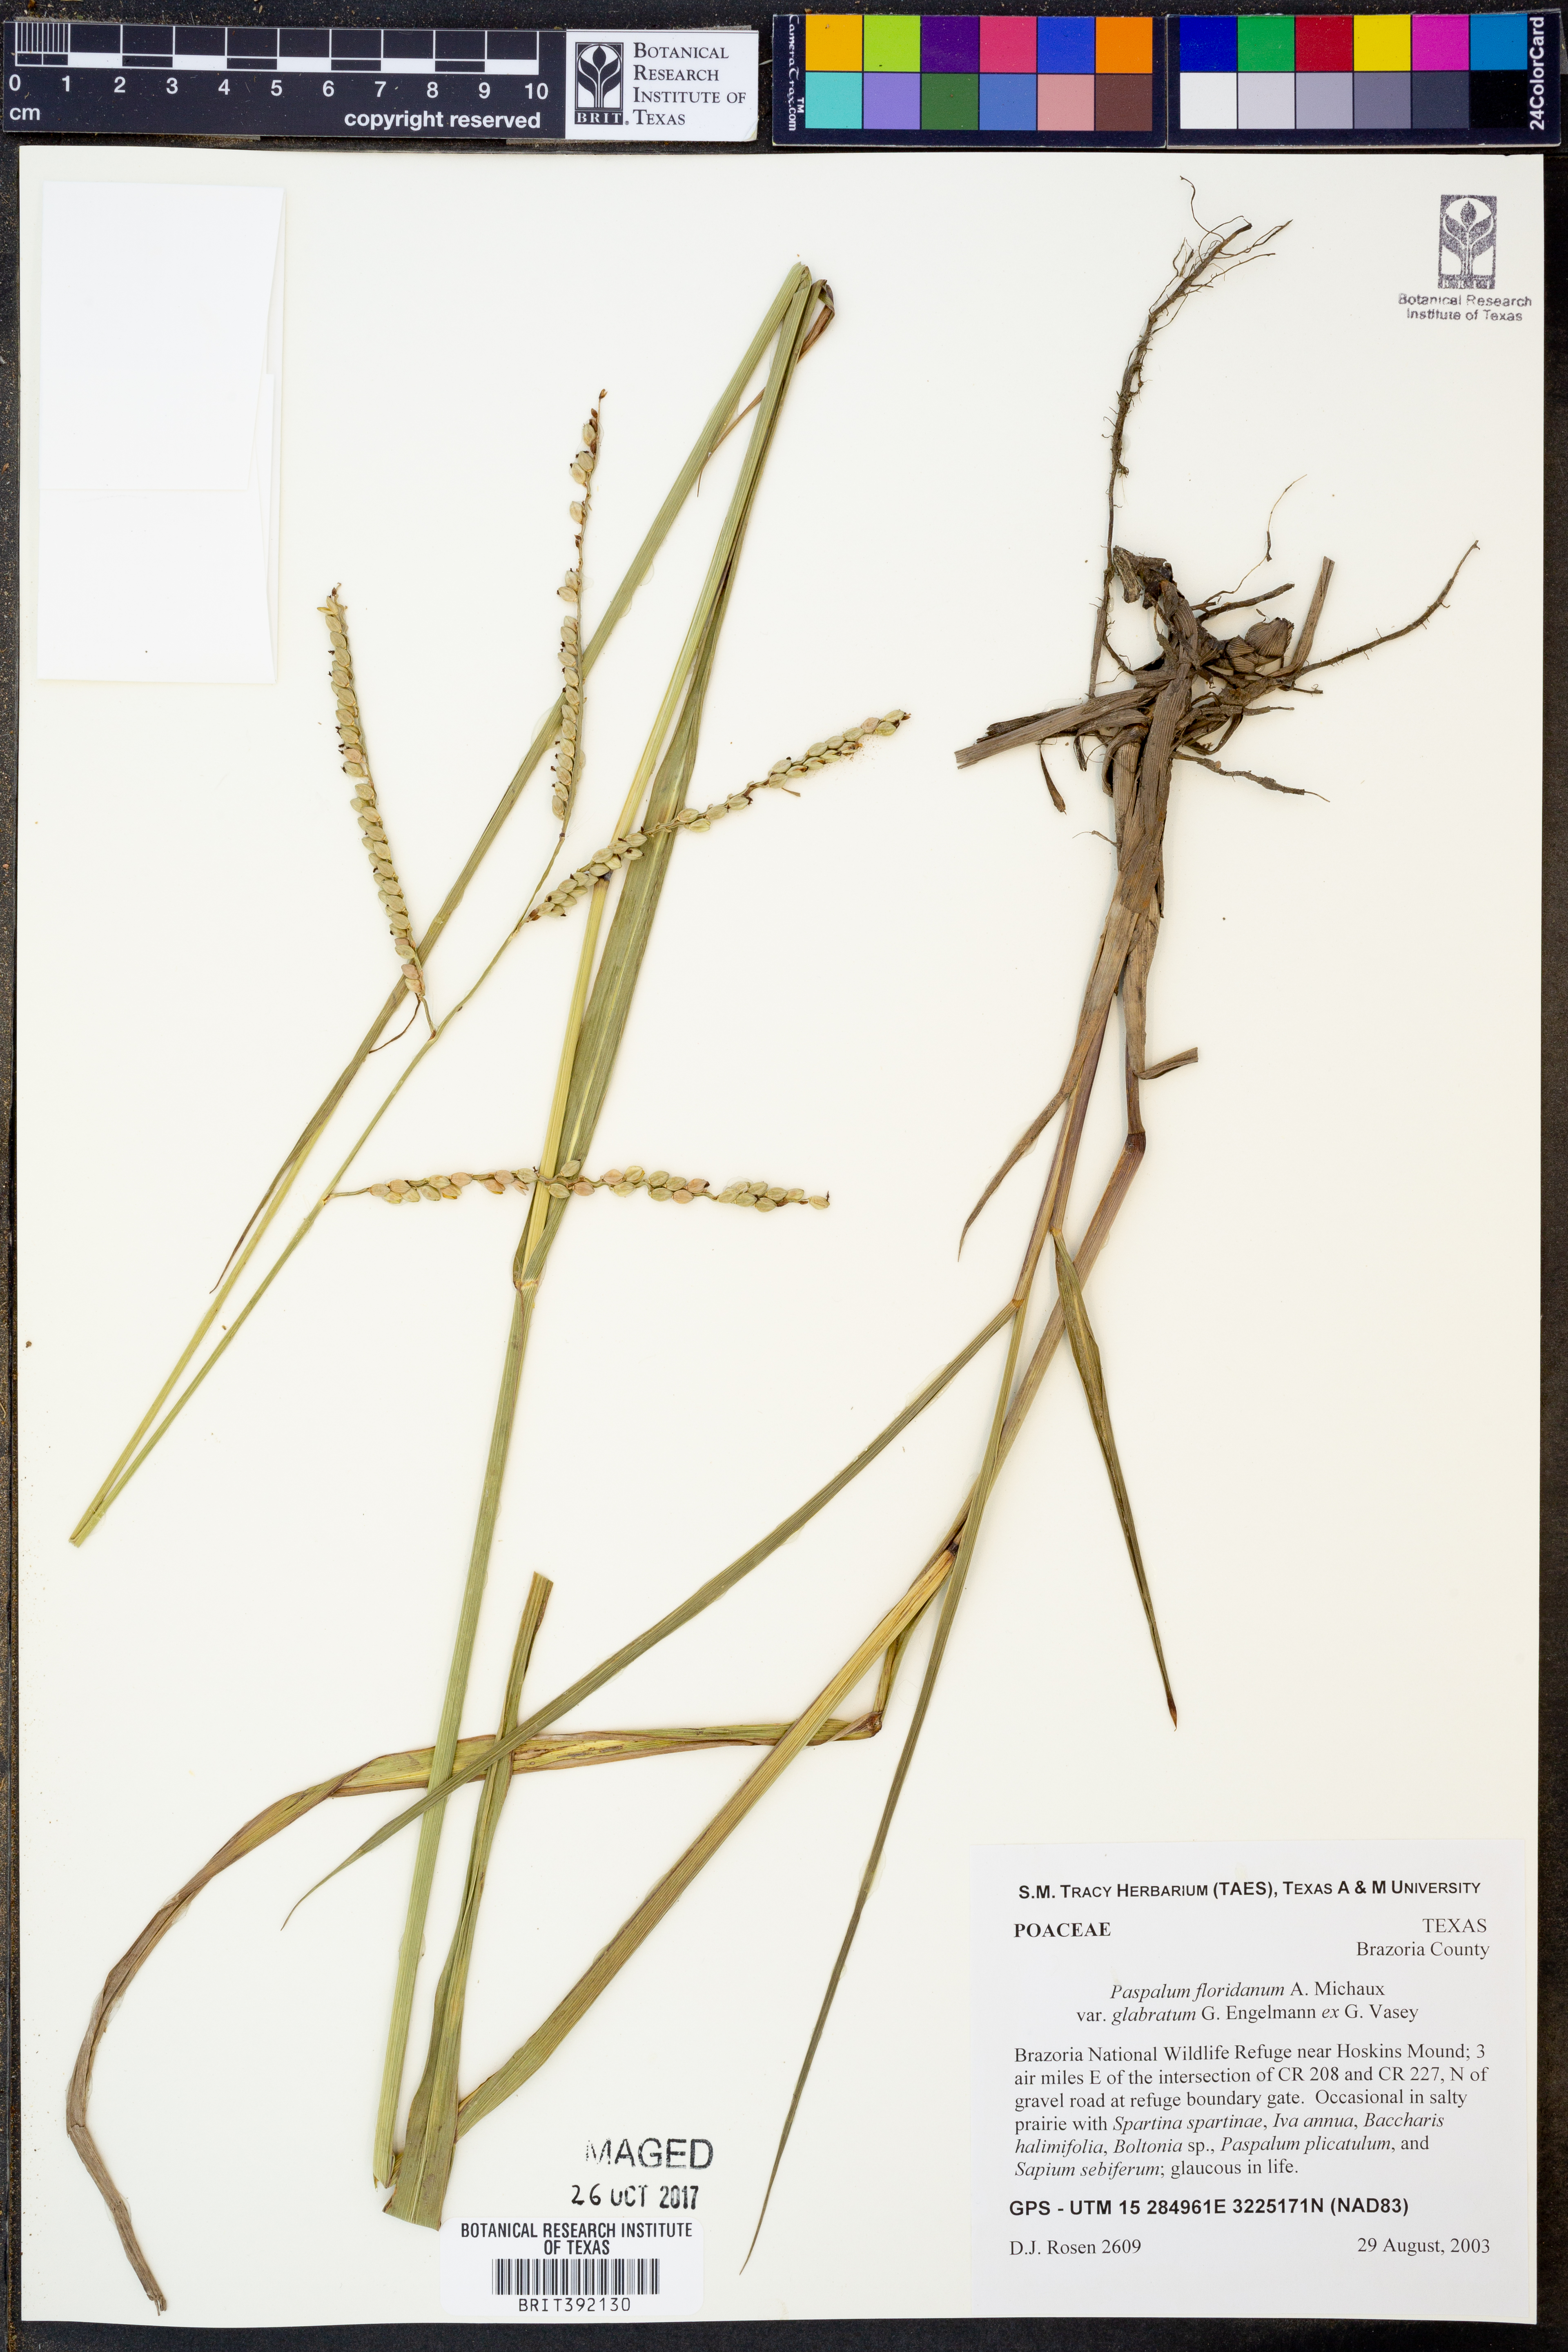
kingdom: Plantae
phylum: Tracheophyta
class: Liliopsida
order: Poales
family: Poaceae
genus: Paspalum
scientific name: Paspalum floridanum
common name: Florida paspalum
